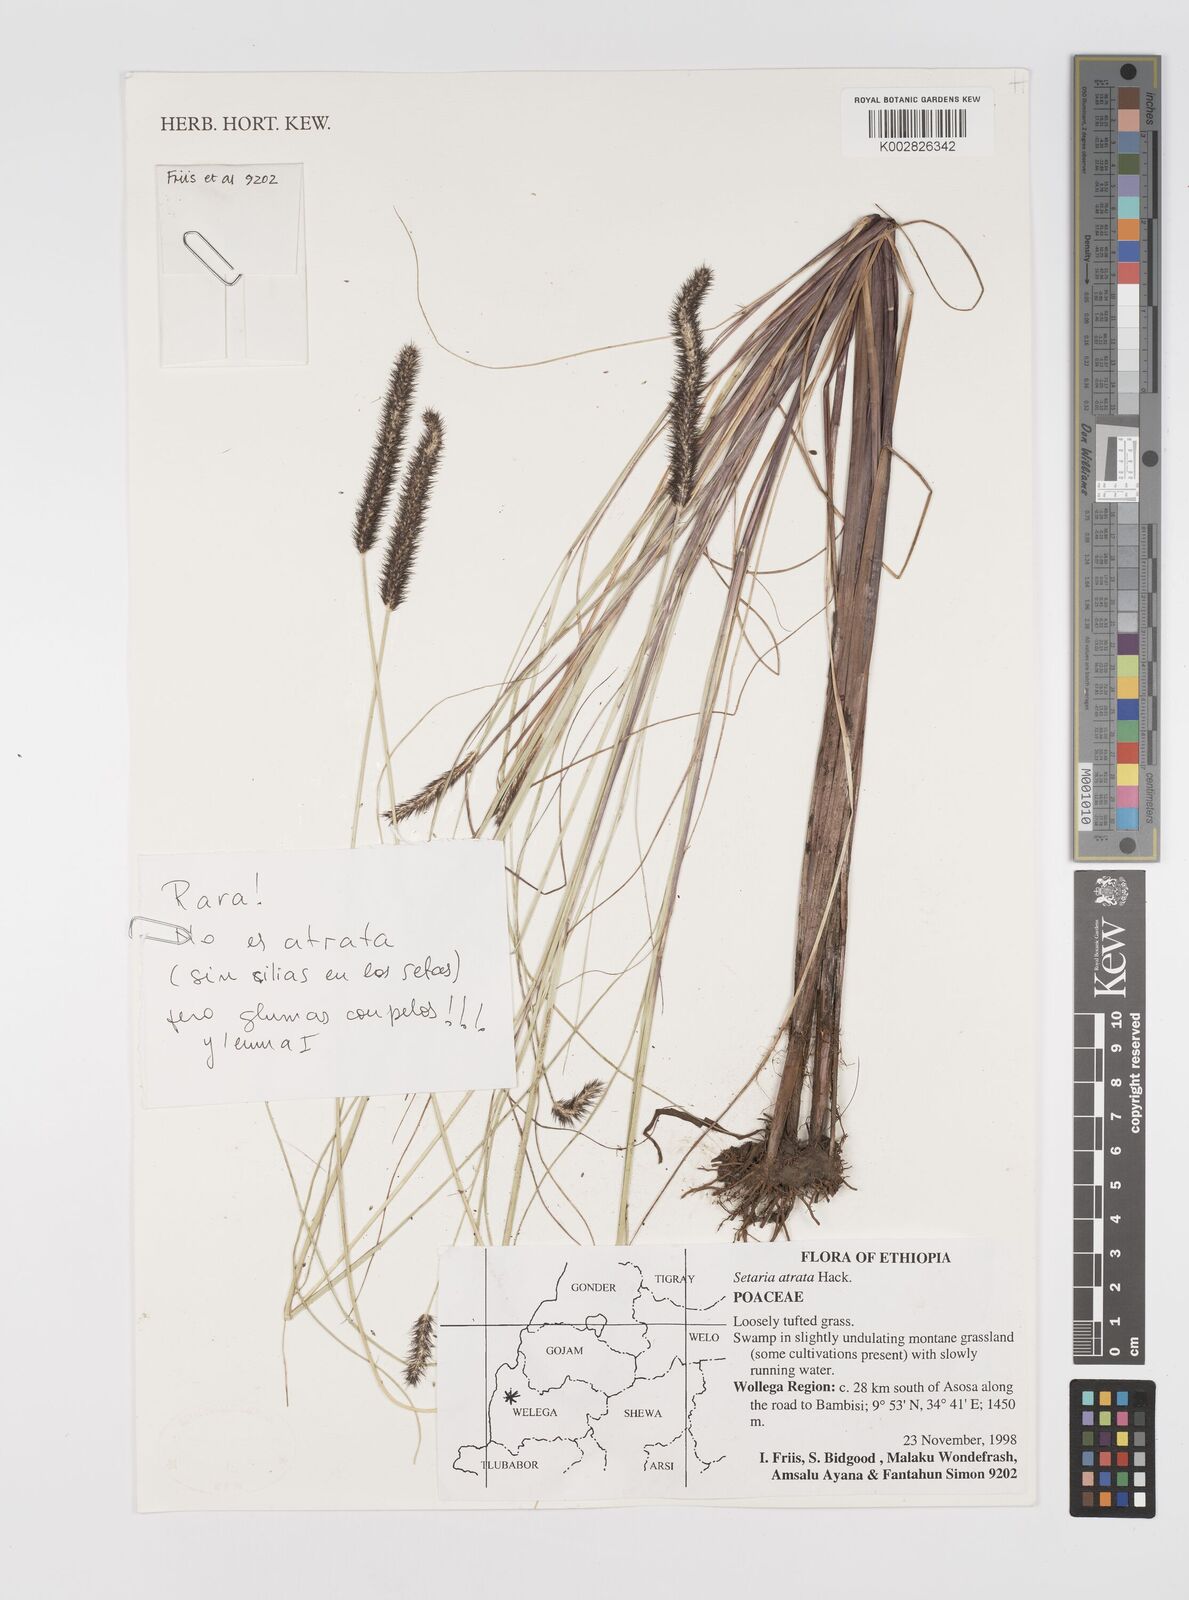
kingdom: Plantae
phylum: Tracheophyta
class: Liliopsida
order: Poales
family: Poaceae
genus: Setaria
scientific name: Setaria atrata
